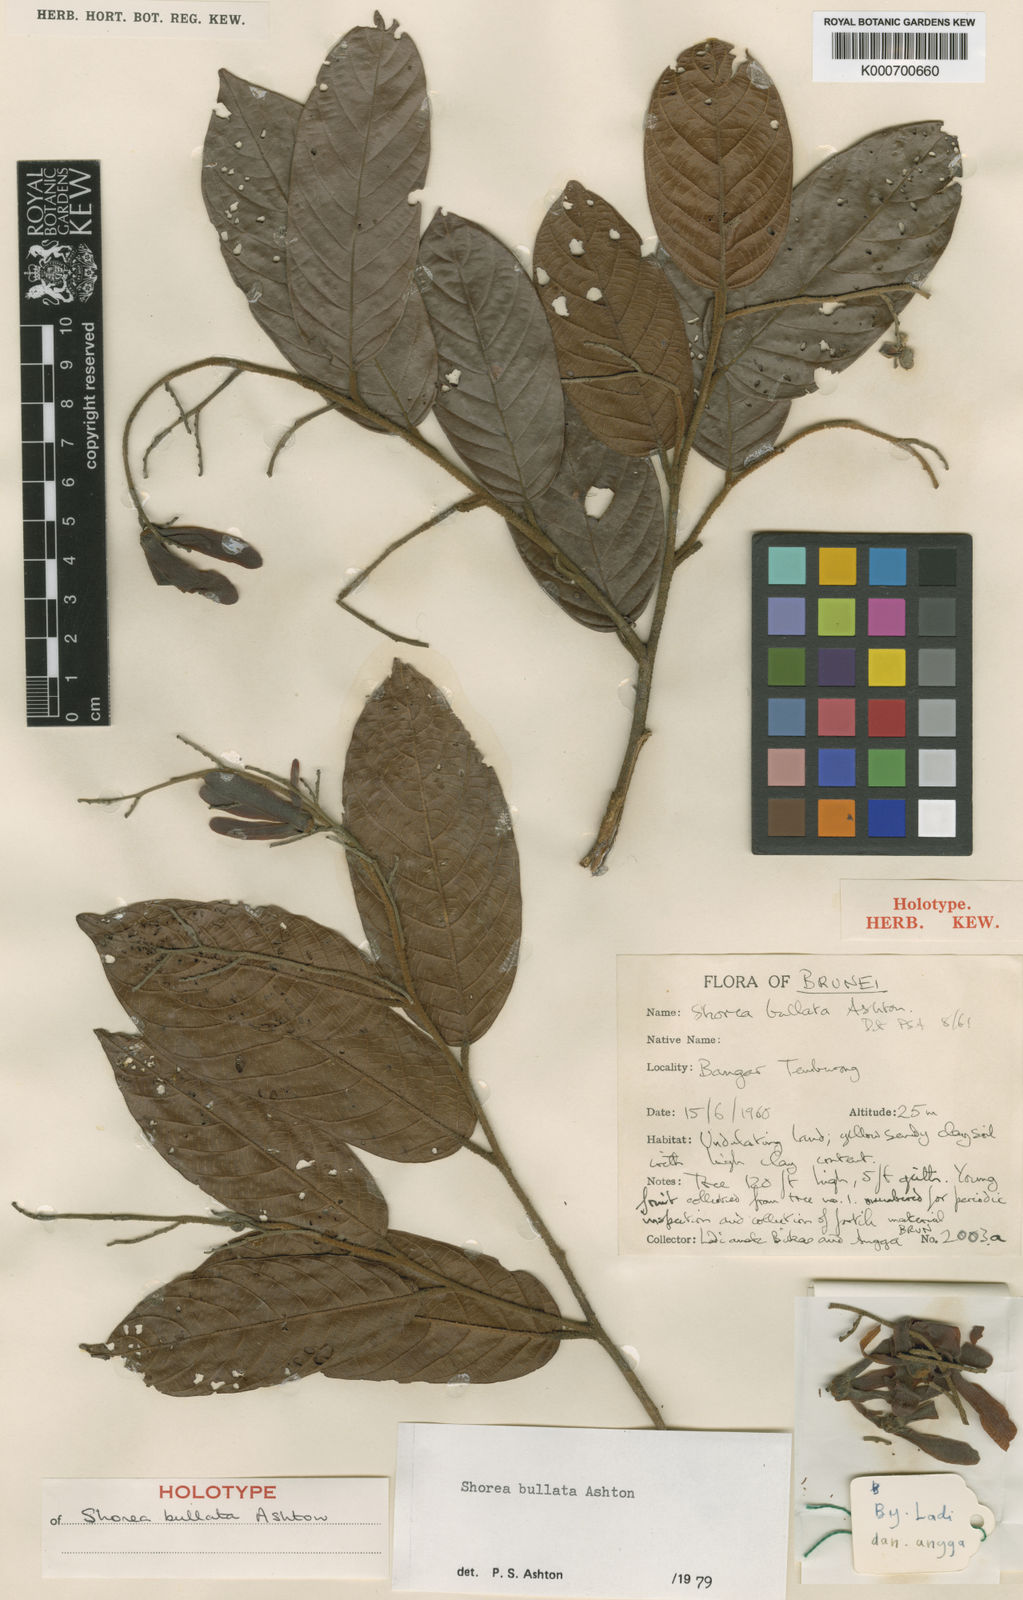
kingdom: Plantae
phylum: Tracheophyta
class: Magnoliopsida
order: Malvales
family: Dipterocarpaceae
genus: Shorea
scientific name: Shorea bullata
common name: Dark red meranti
